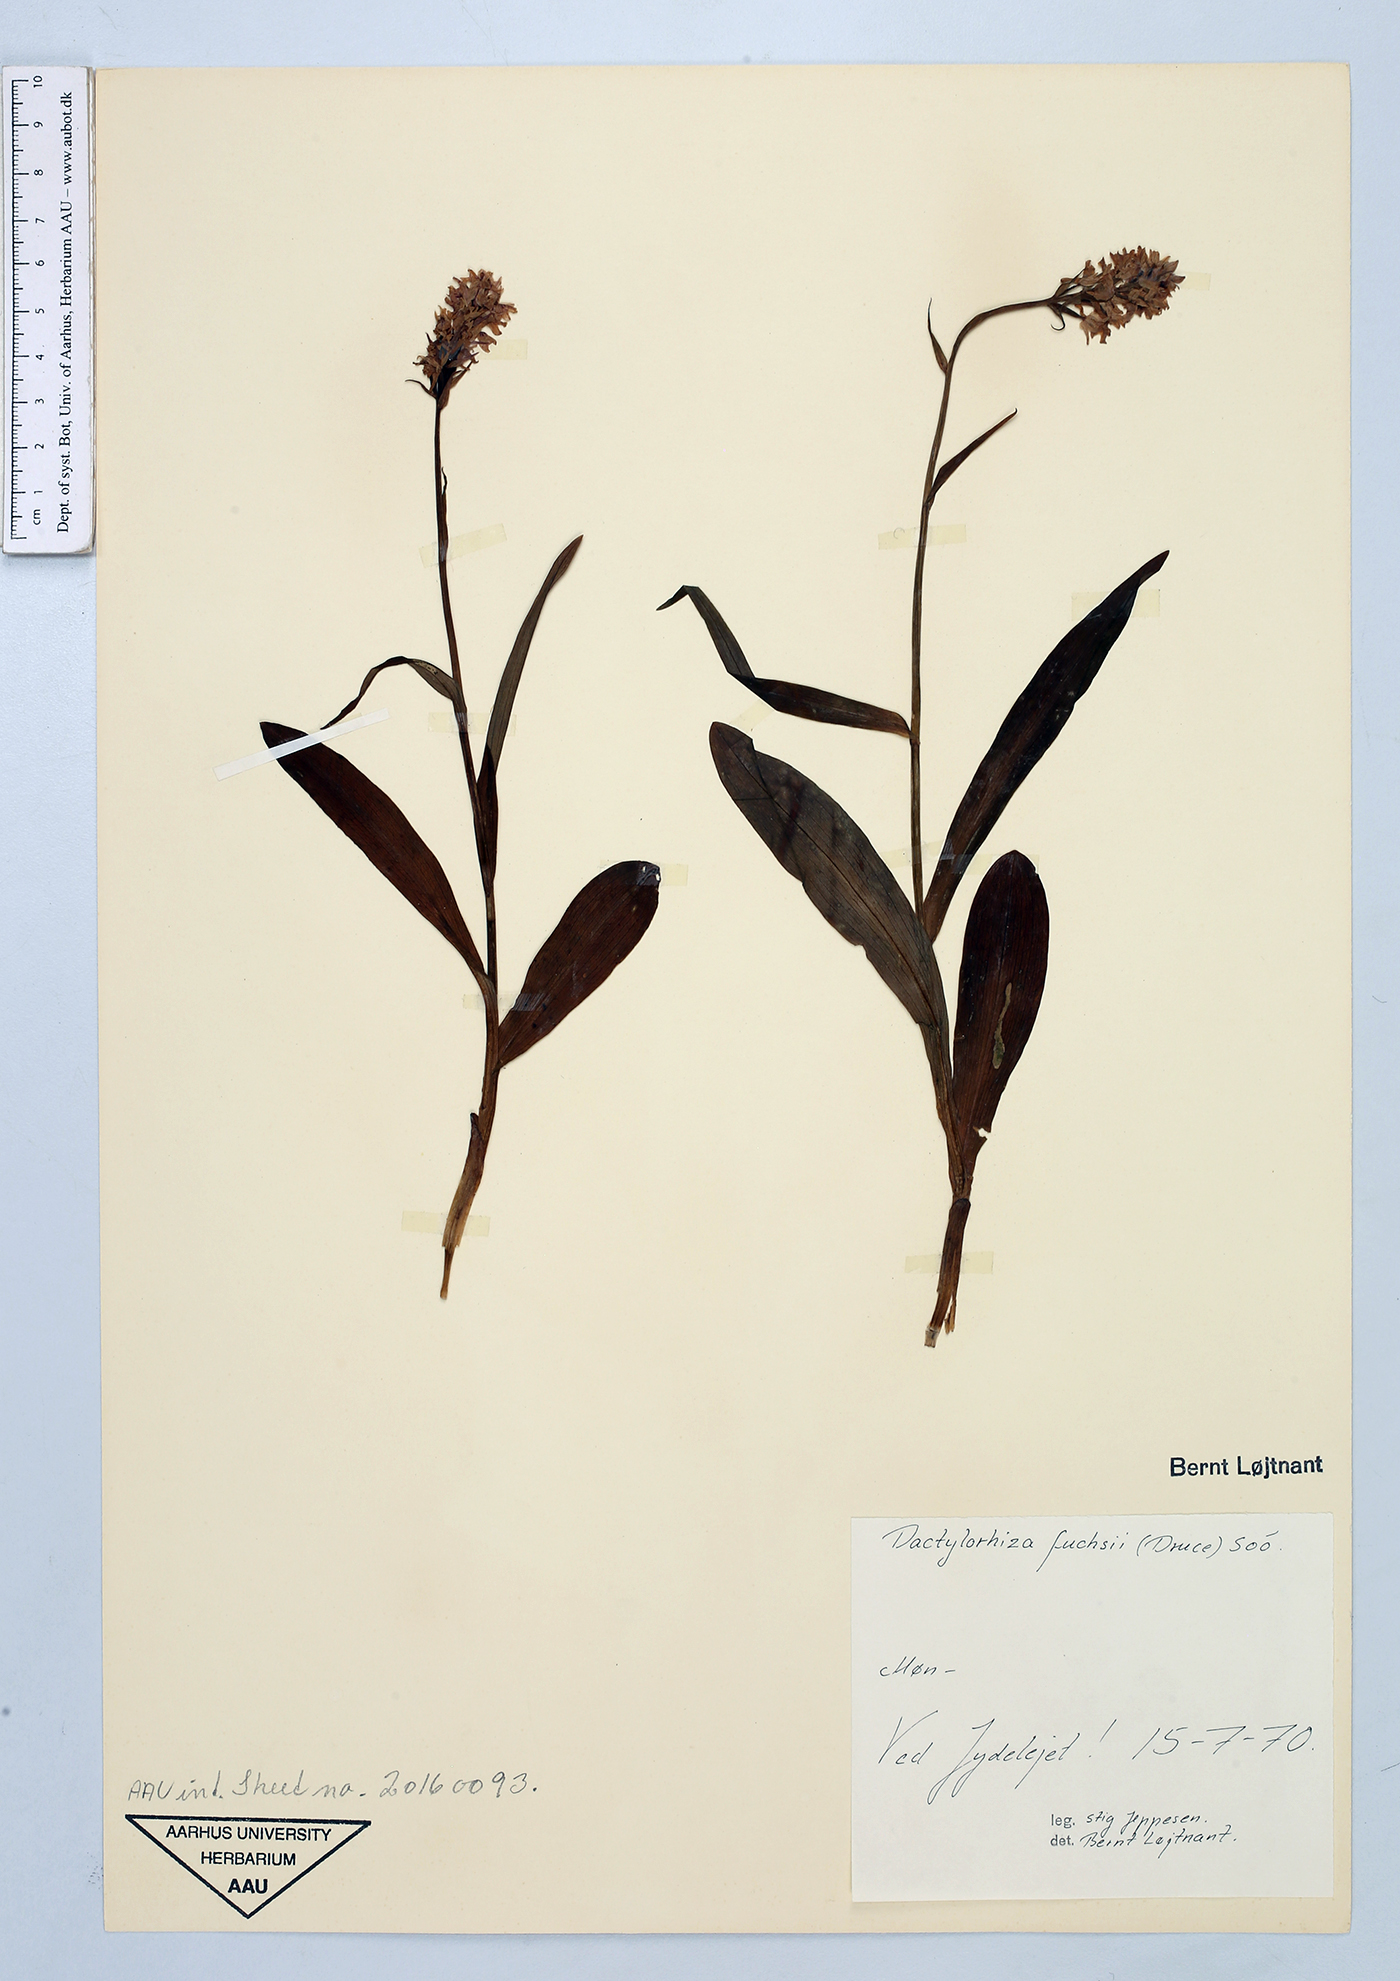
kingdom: Plantae
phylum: Tracheophyta
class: Liliopsida
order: Asparagales
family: Orchidaceae
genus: Dactylorhiza
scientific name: Dactylorhiza maculata
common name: Heath spotted-orchid
